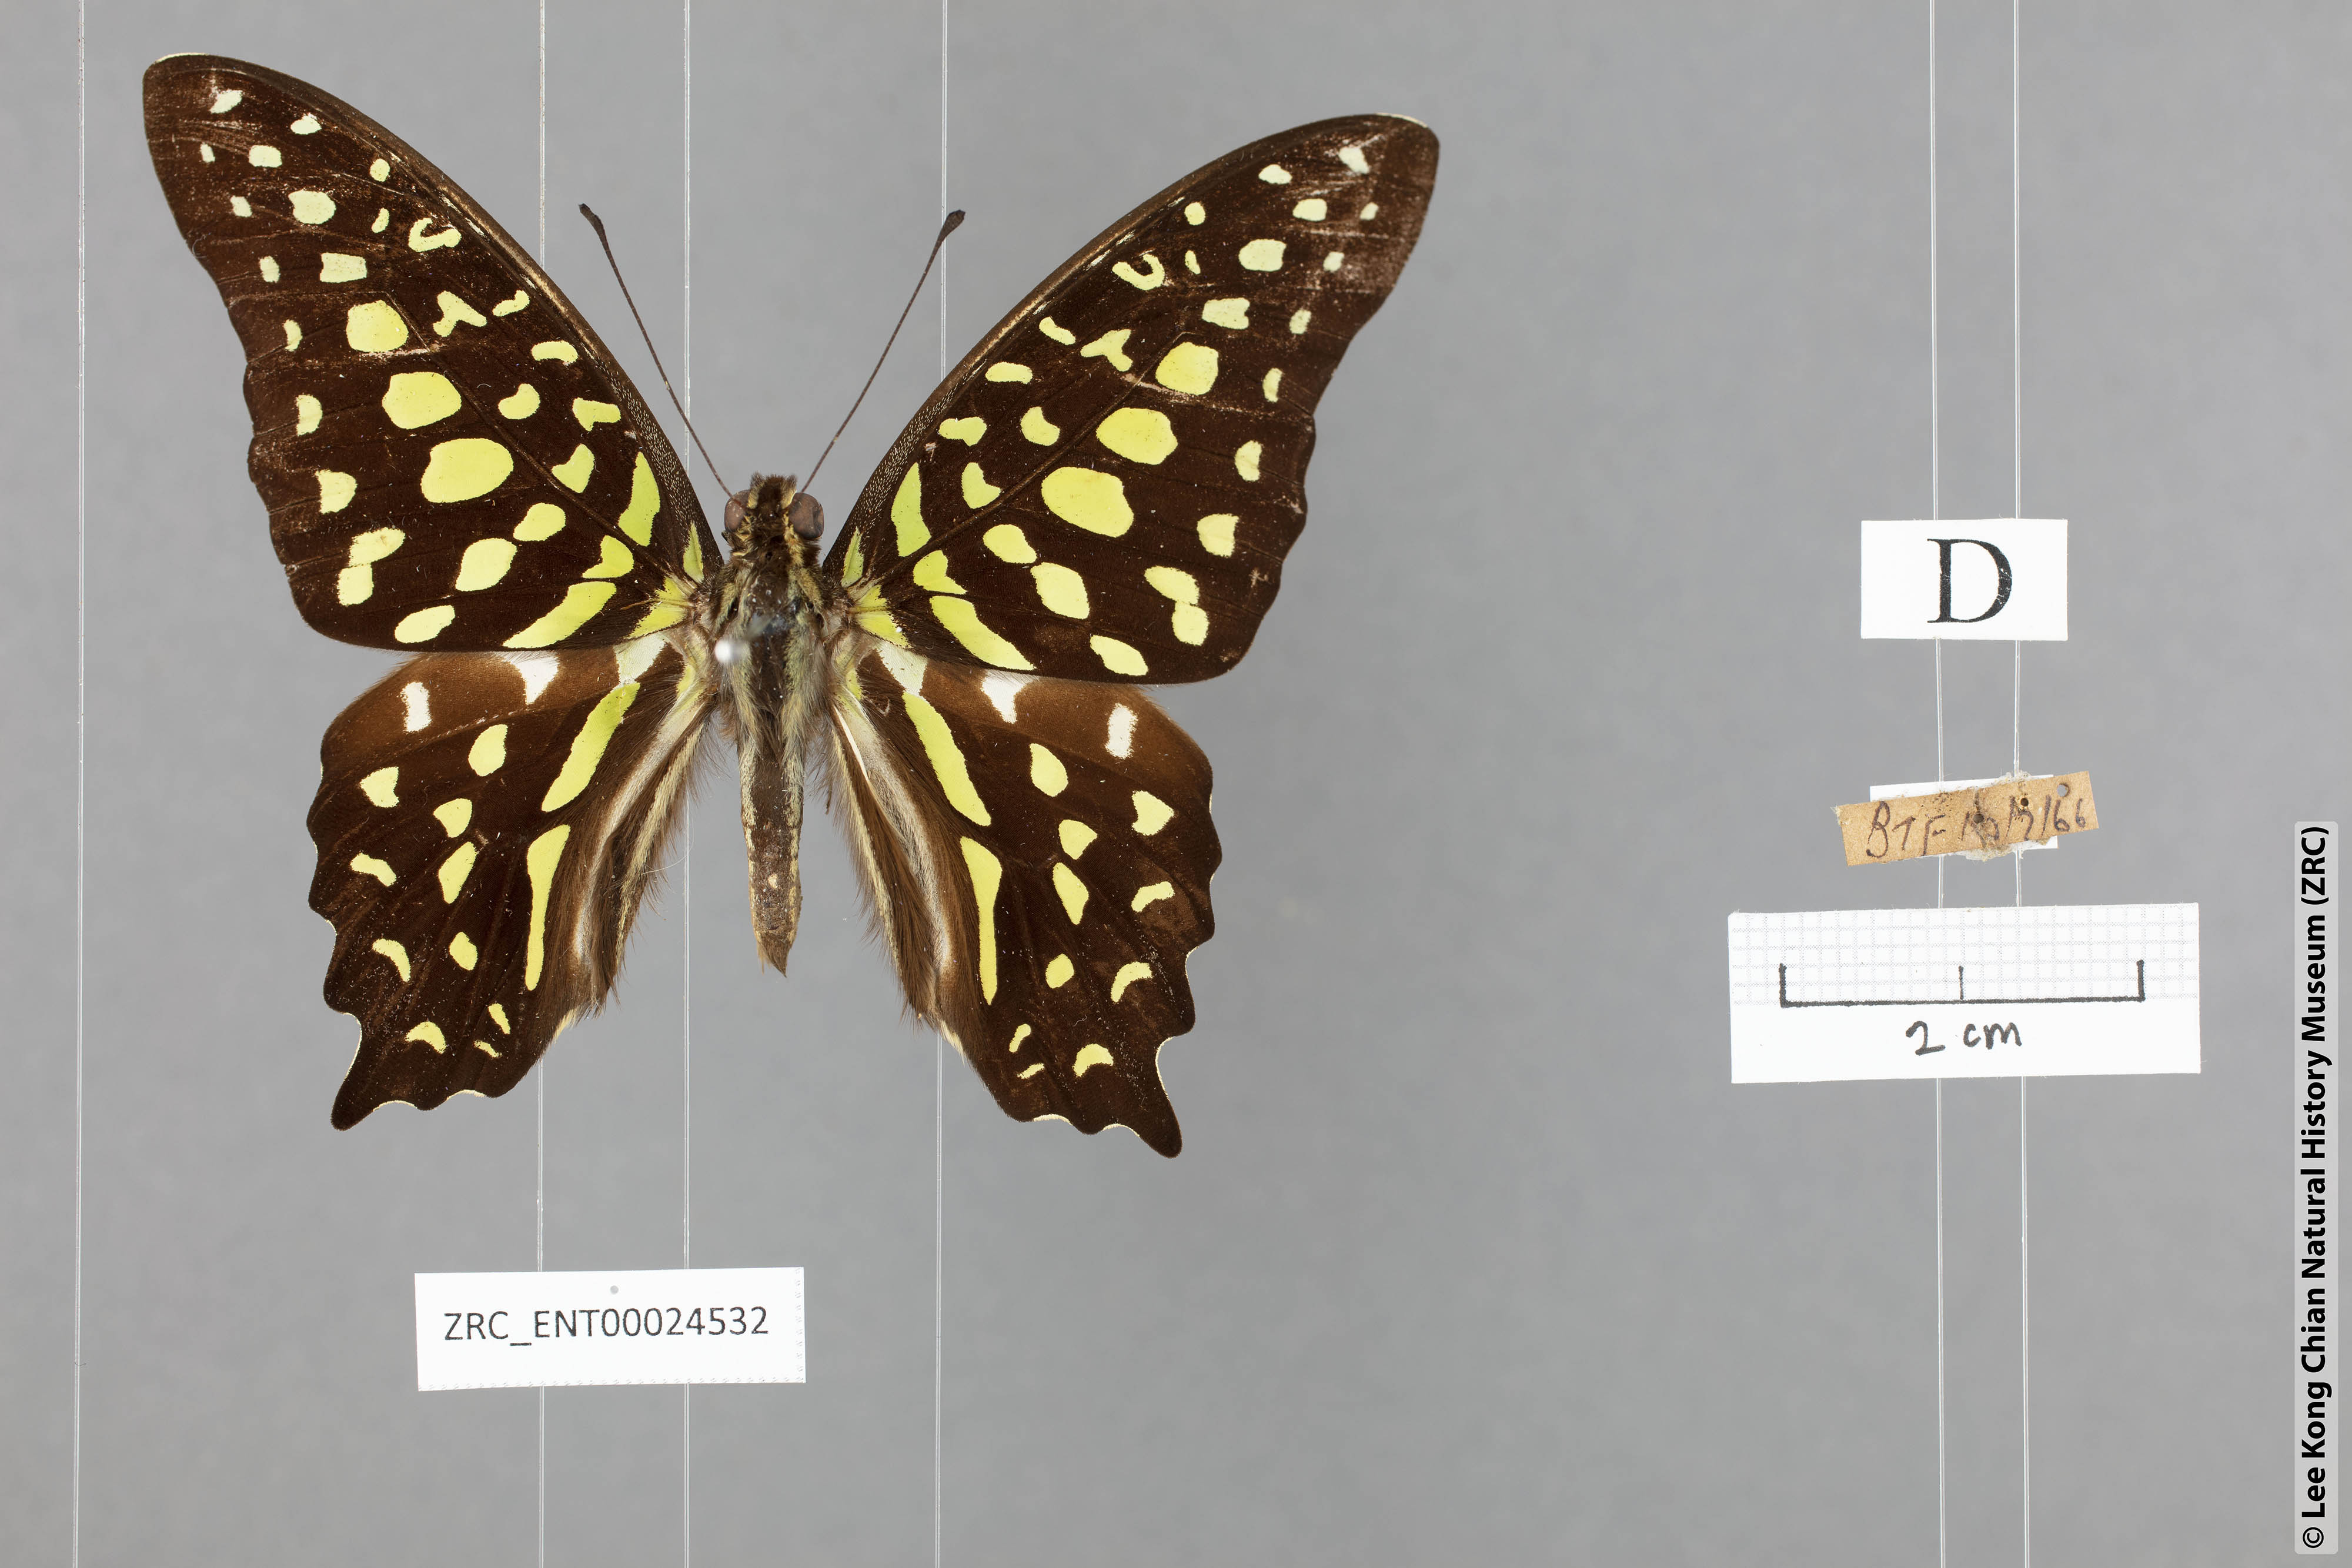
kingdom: Animalia
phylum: Arthropoda
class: Insecta
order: Lepidoptera
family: Papilionidae
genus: Graphium
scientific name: Graphium agamemnon
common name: Tailed jay
